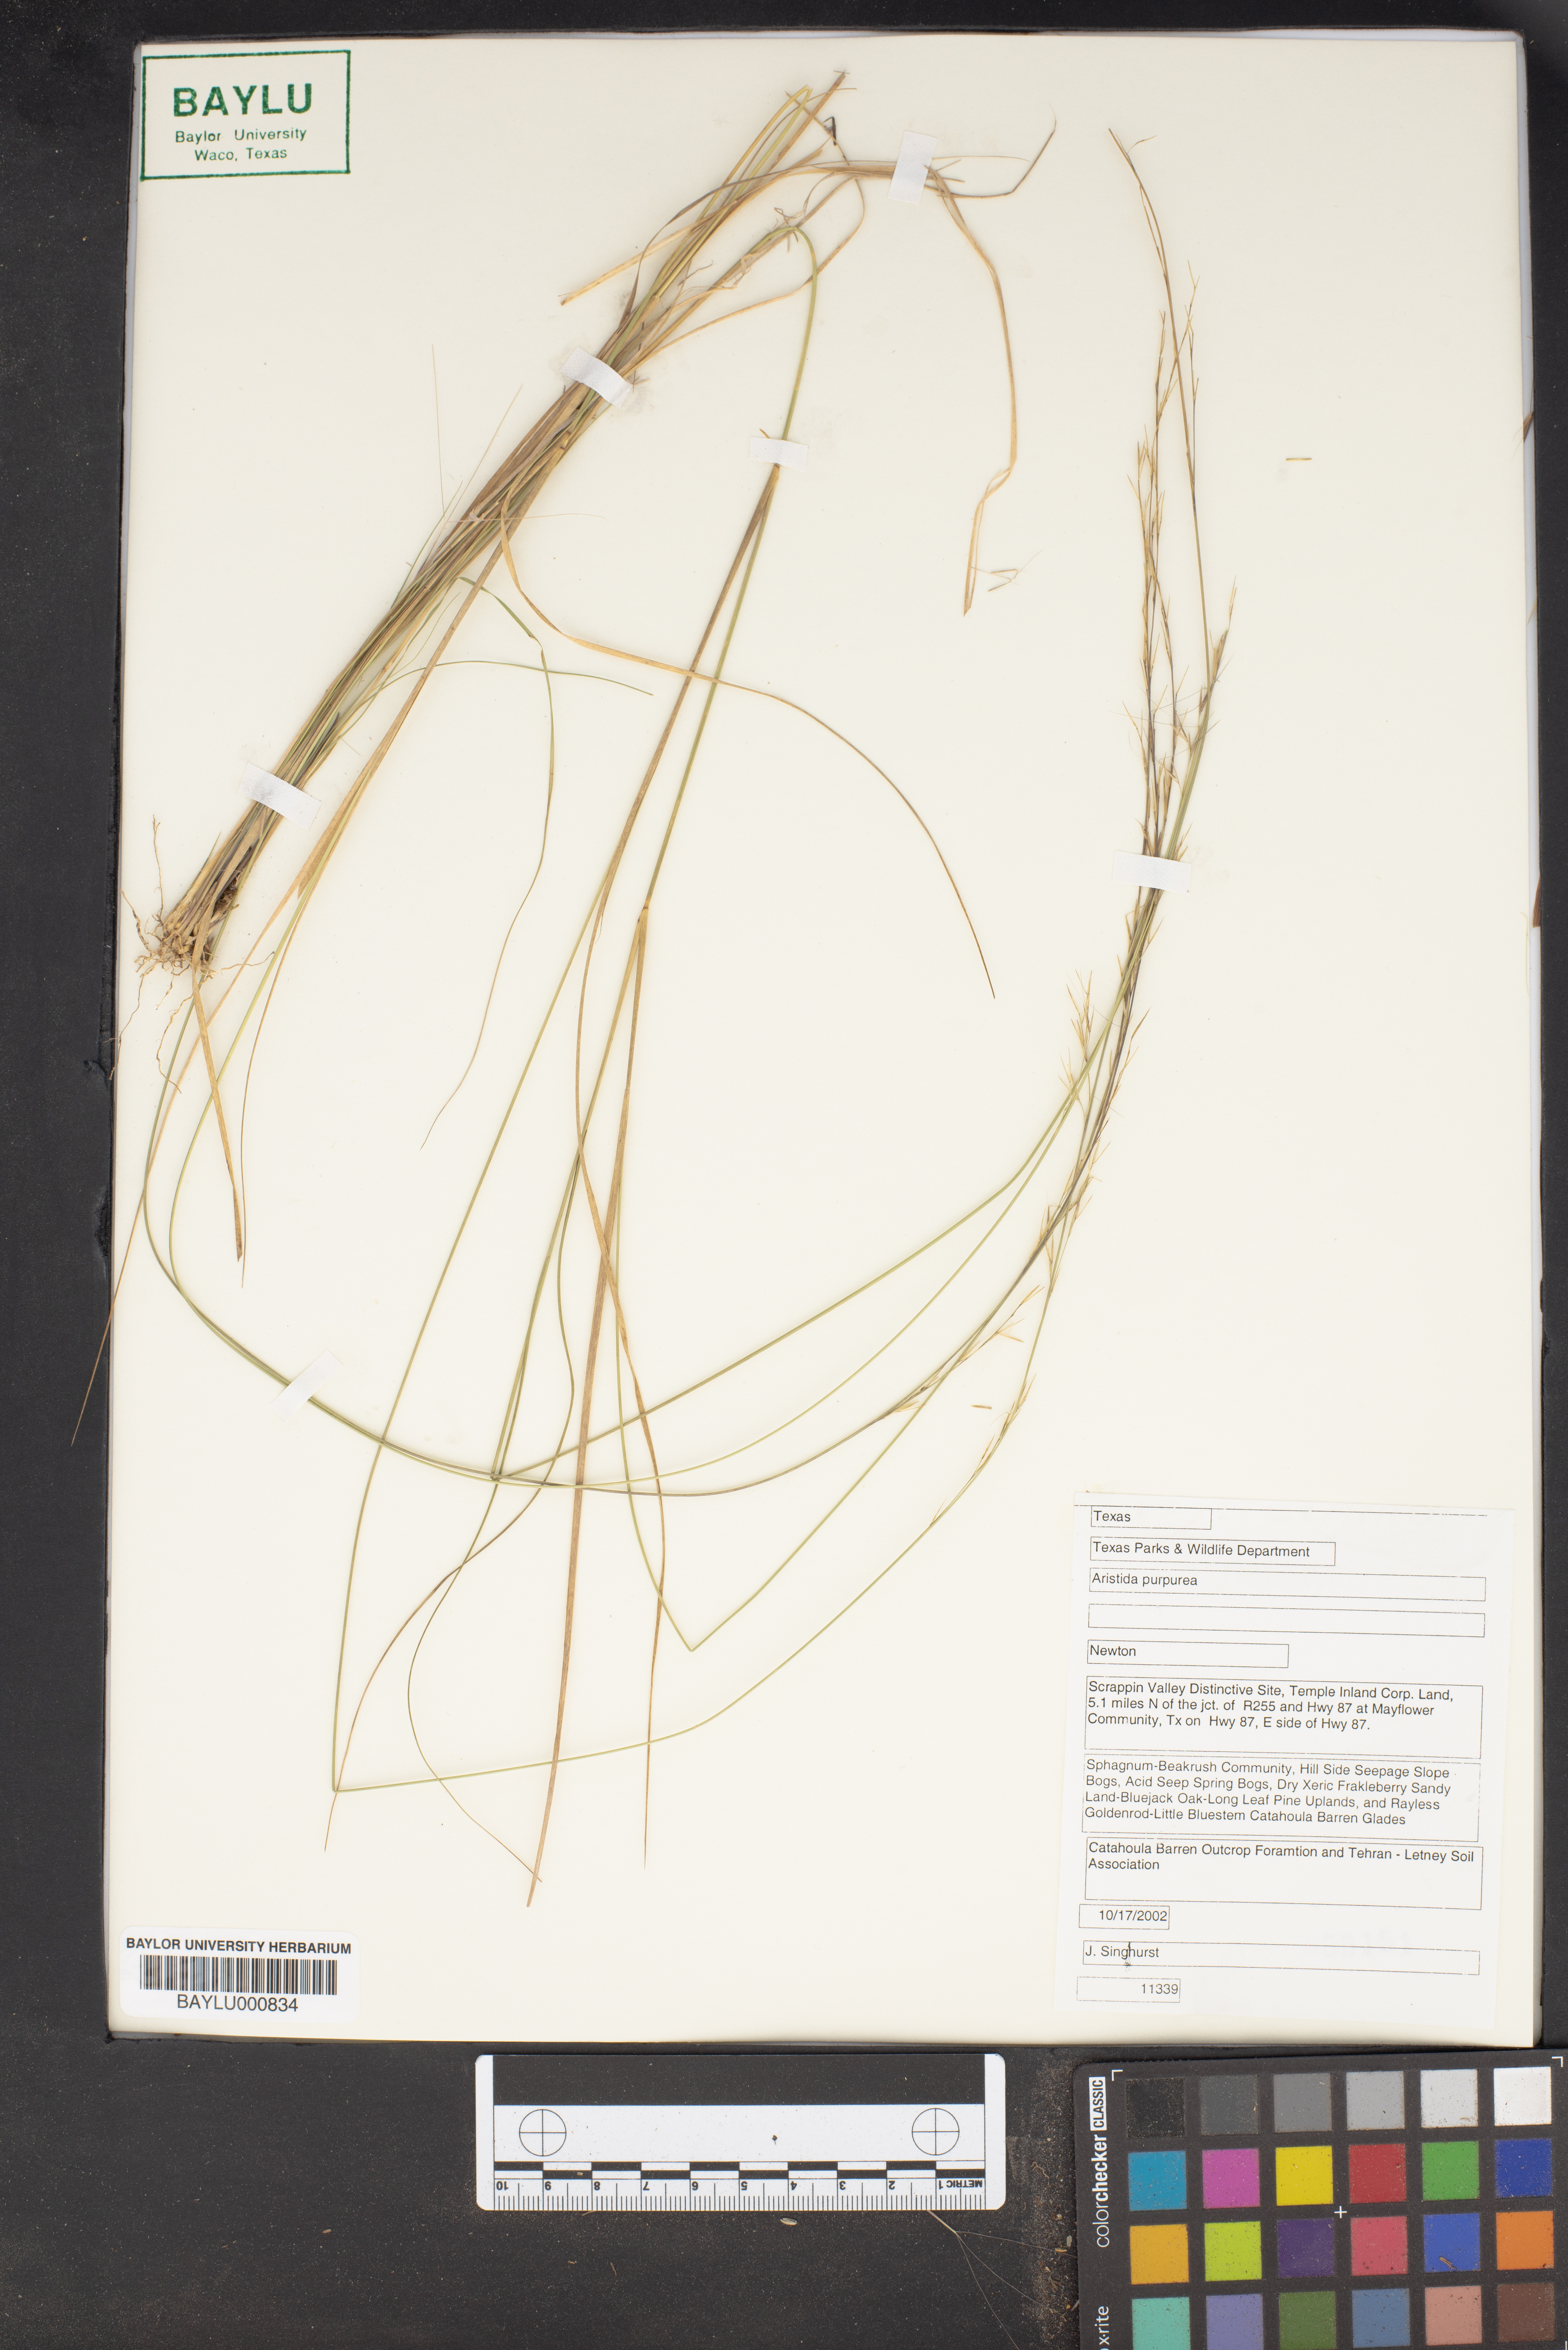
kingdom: Plantae
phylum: Tracheophyta
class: Liliopsida
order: Poales
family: Poaceae
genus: Aristida
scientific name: Aristida purpurea
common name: Purple threeawn
